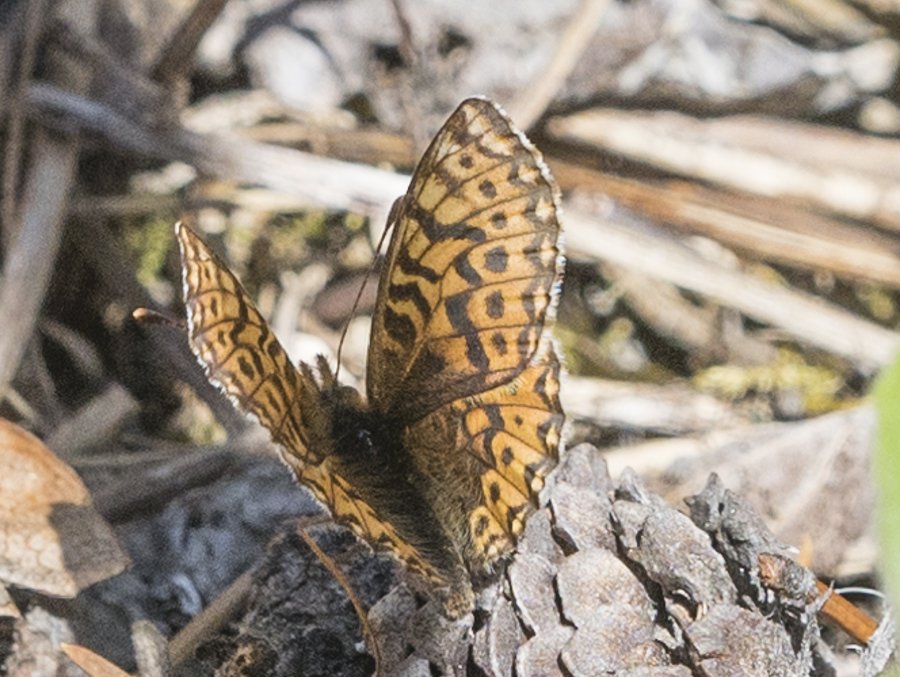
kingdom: Animalia
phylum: Arthropoda
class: Insecta
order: Lepidoptera
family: Nymphalidae
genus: Boloria
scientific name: Boloria freija
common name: Freija Fritillary
